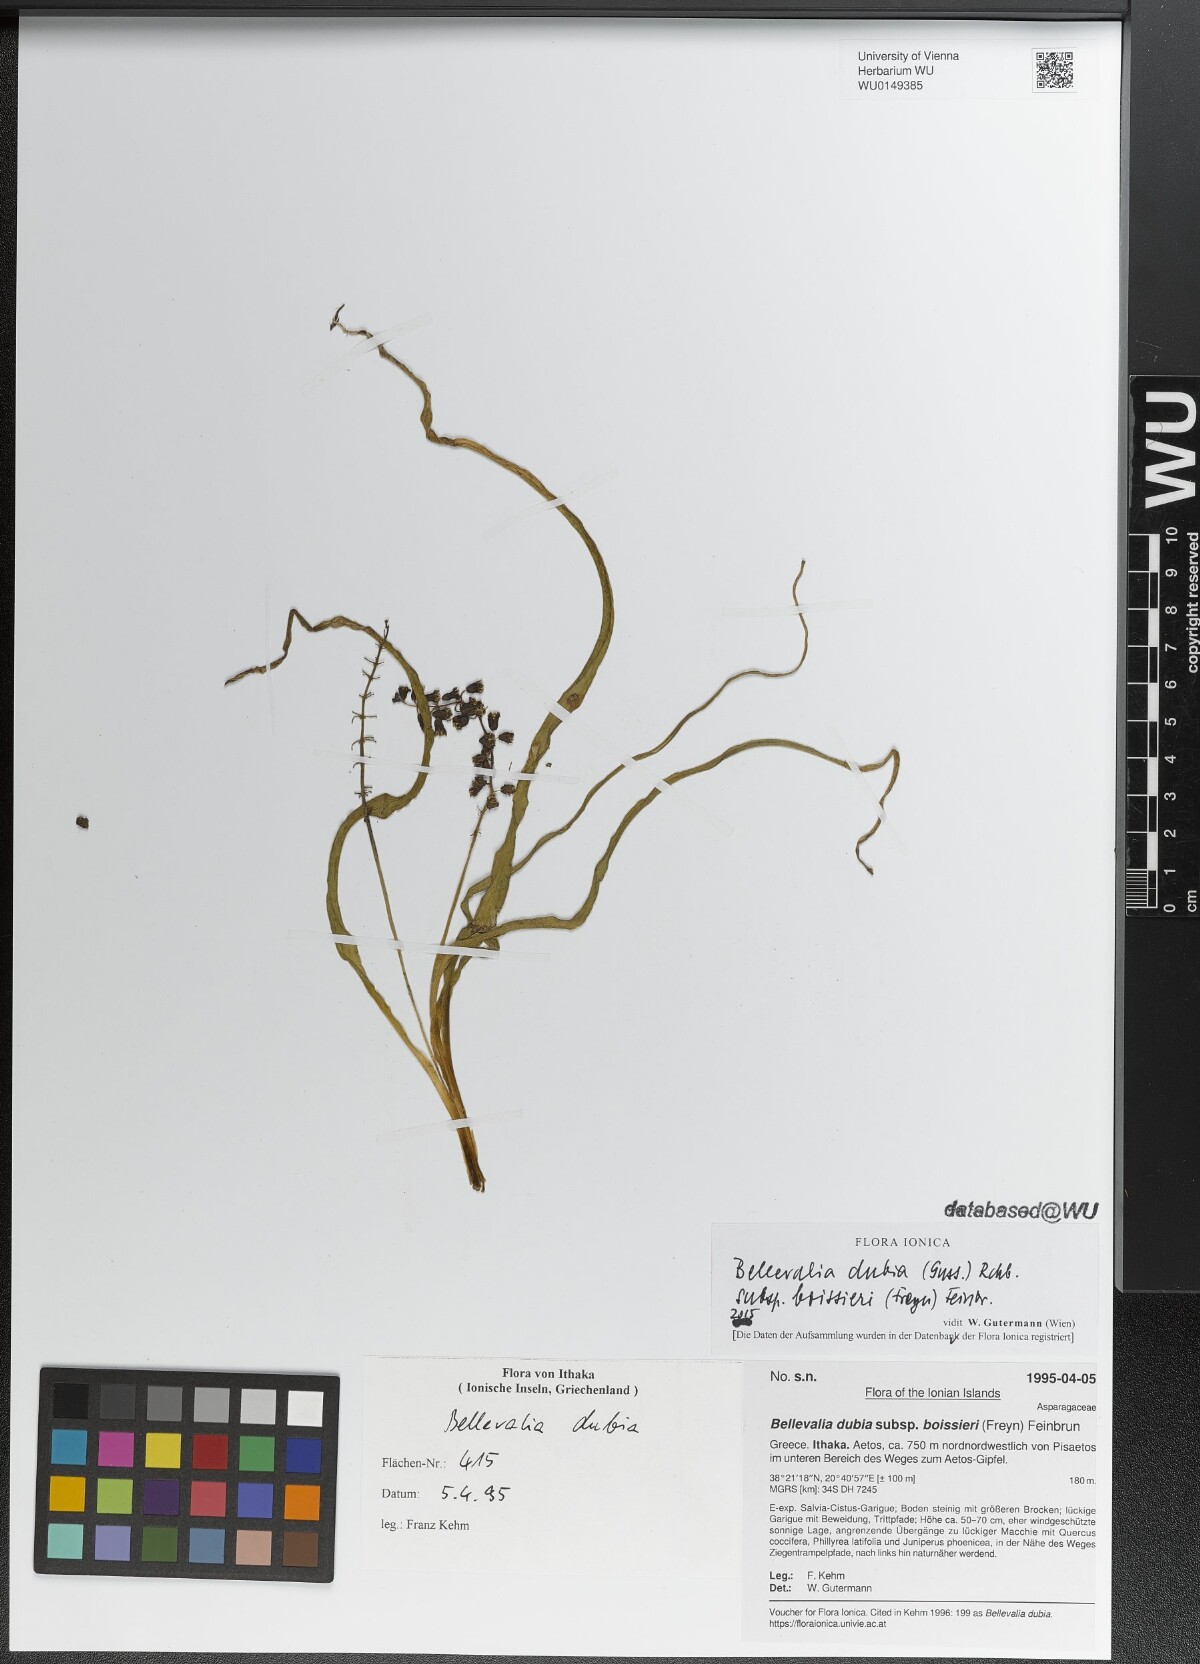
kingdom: Plantae
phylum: Tracheophyta
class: Liliopsida
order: Asparagales
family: Asparagaceae
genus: Bellevalia
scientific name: Bellevalia dubia
